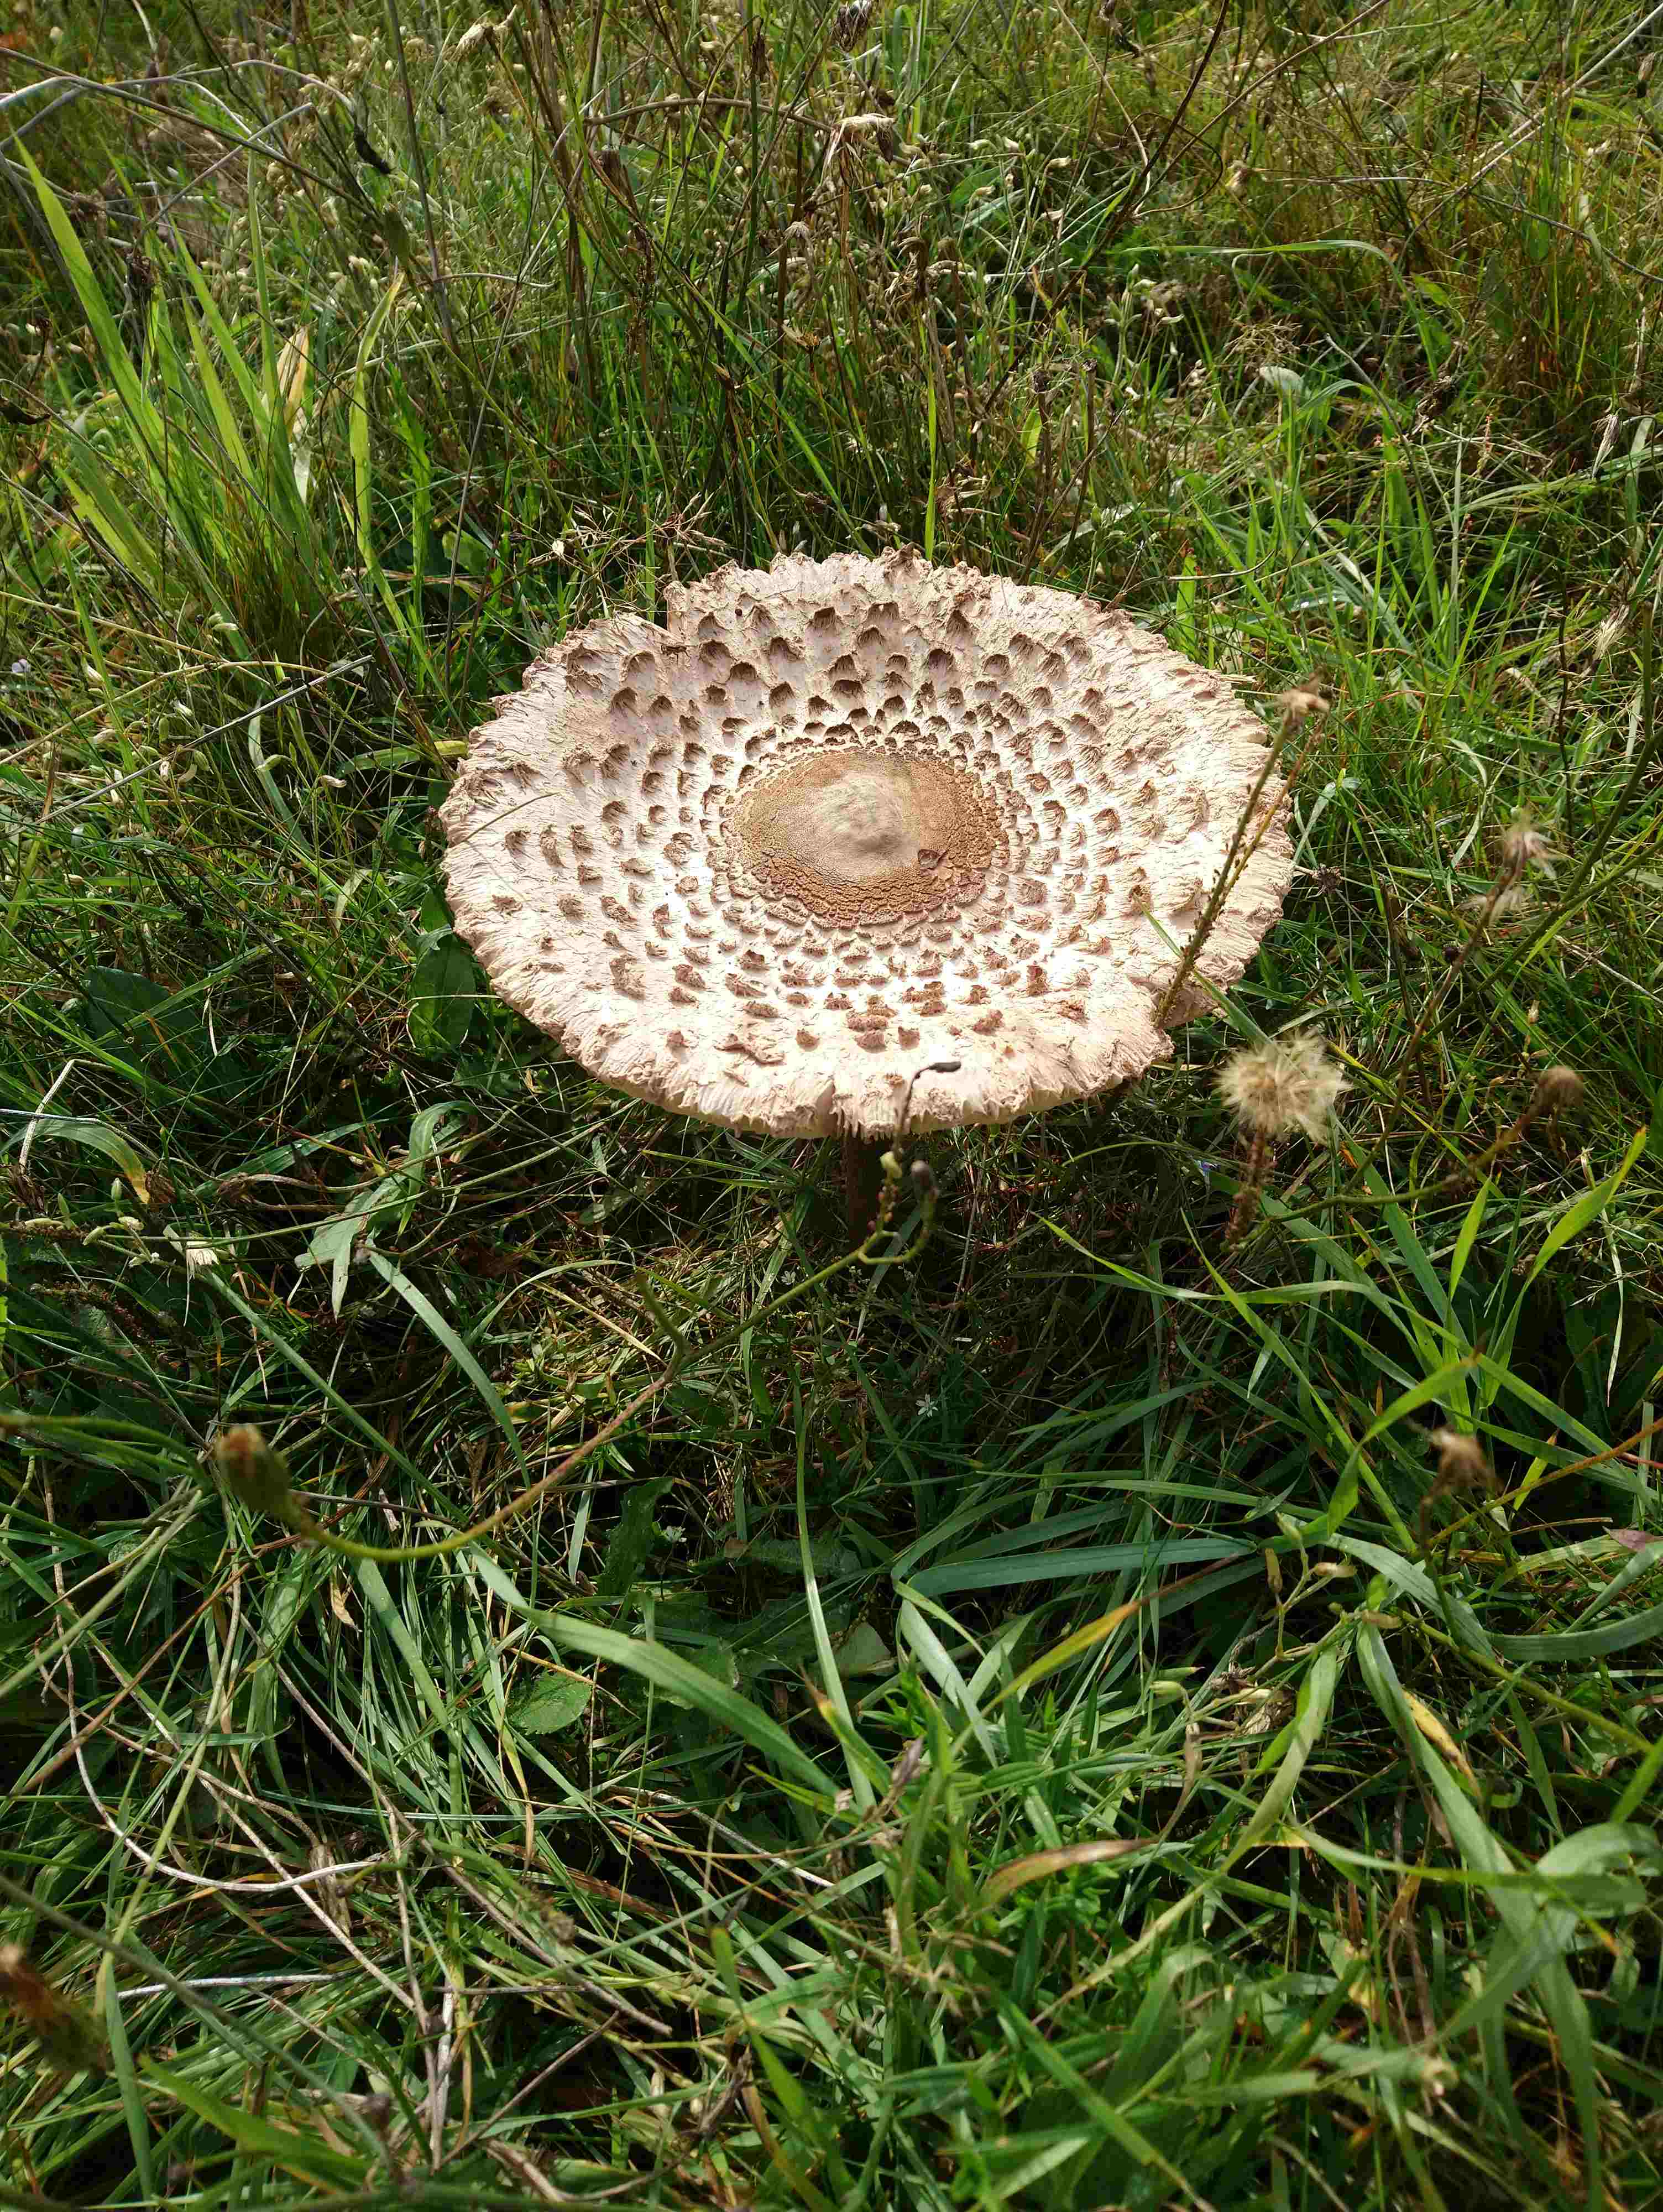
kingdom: Fungi
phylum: Basidiomycota
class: Agaricomycetes
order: Agaricales
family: Agaricaceae
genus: Macrolepiota
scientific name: Macrolepiota
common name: kæmpeparasolhat
